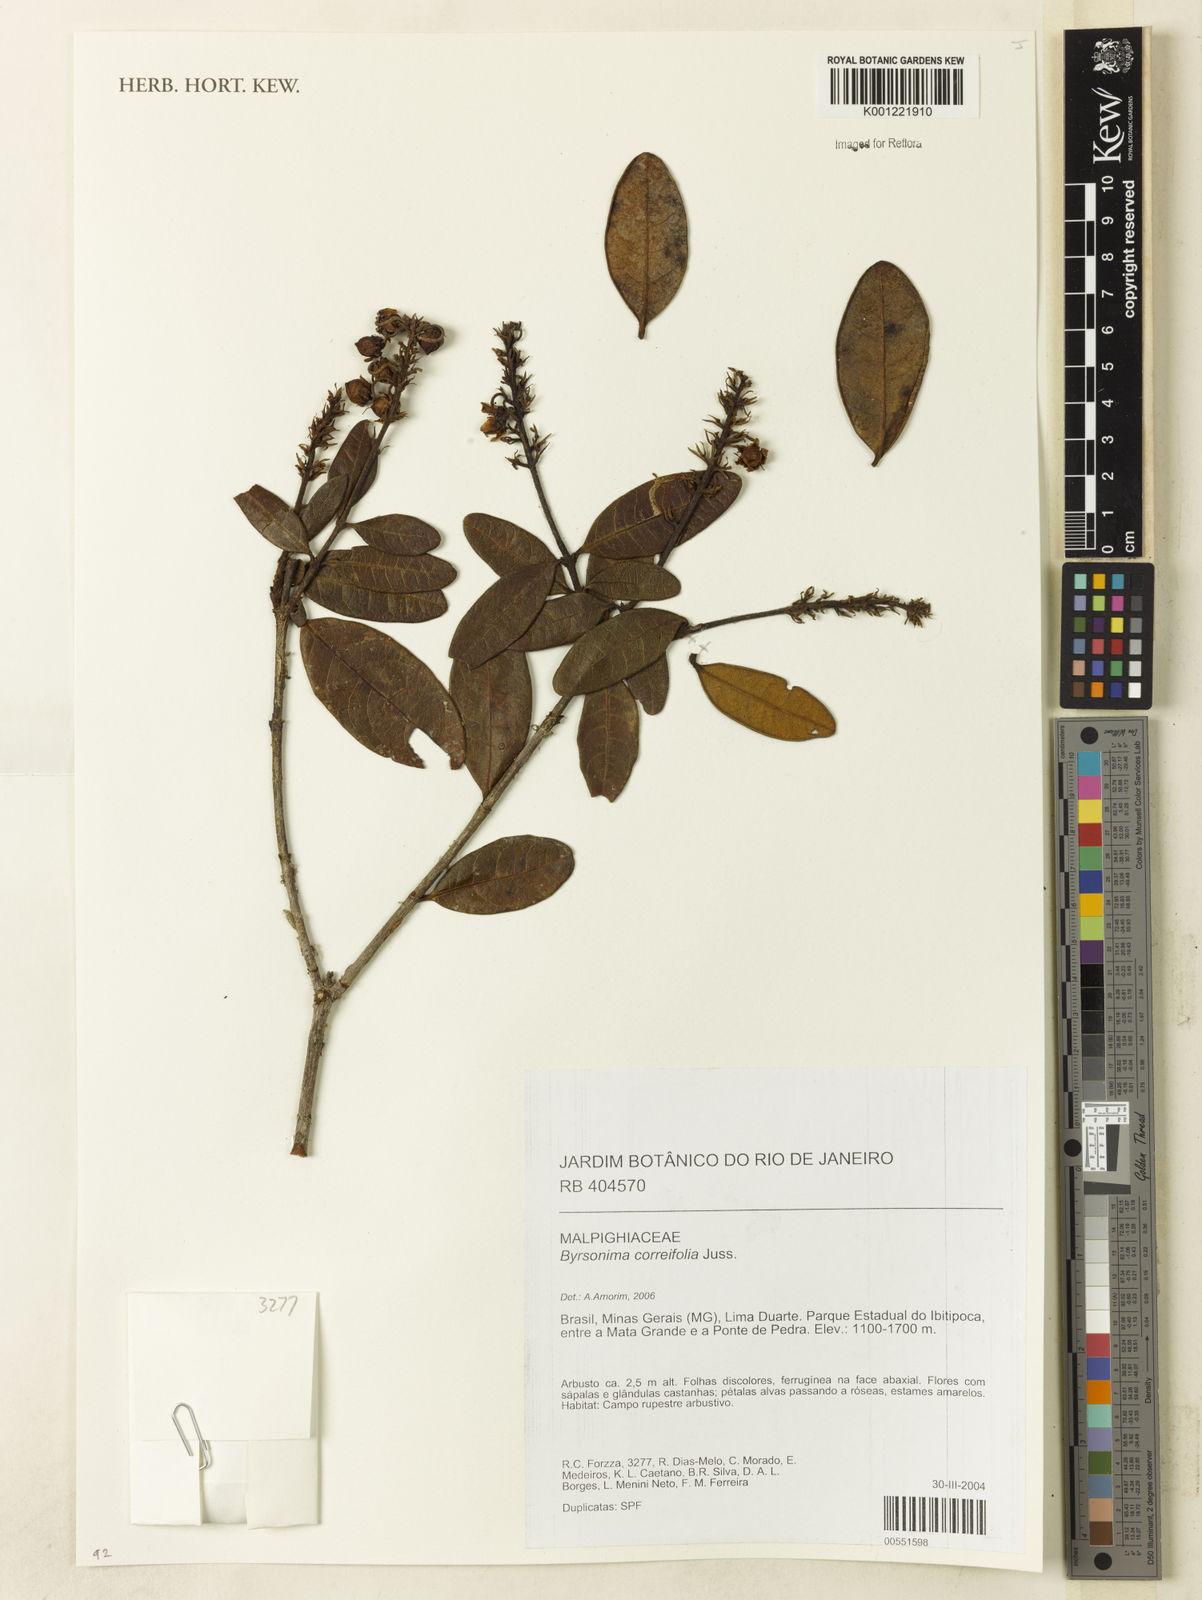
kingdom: Plantae
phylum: Tracheophyta
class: Magnoliopsida
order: Malpighiales
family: Malpighiaceae
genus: Byrsonima
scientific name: Byrsonima correifolia
